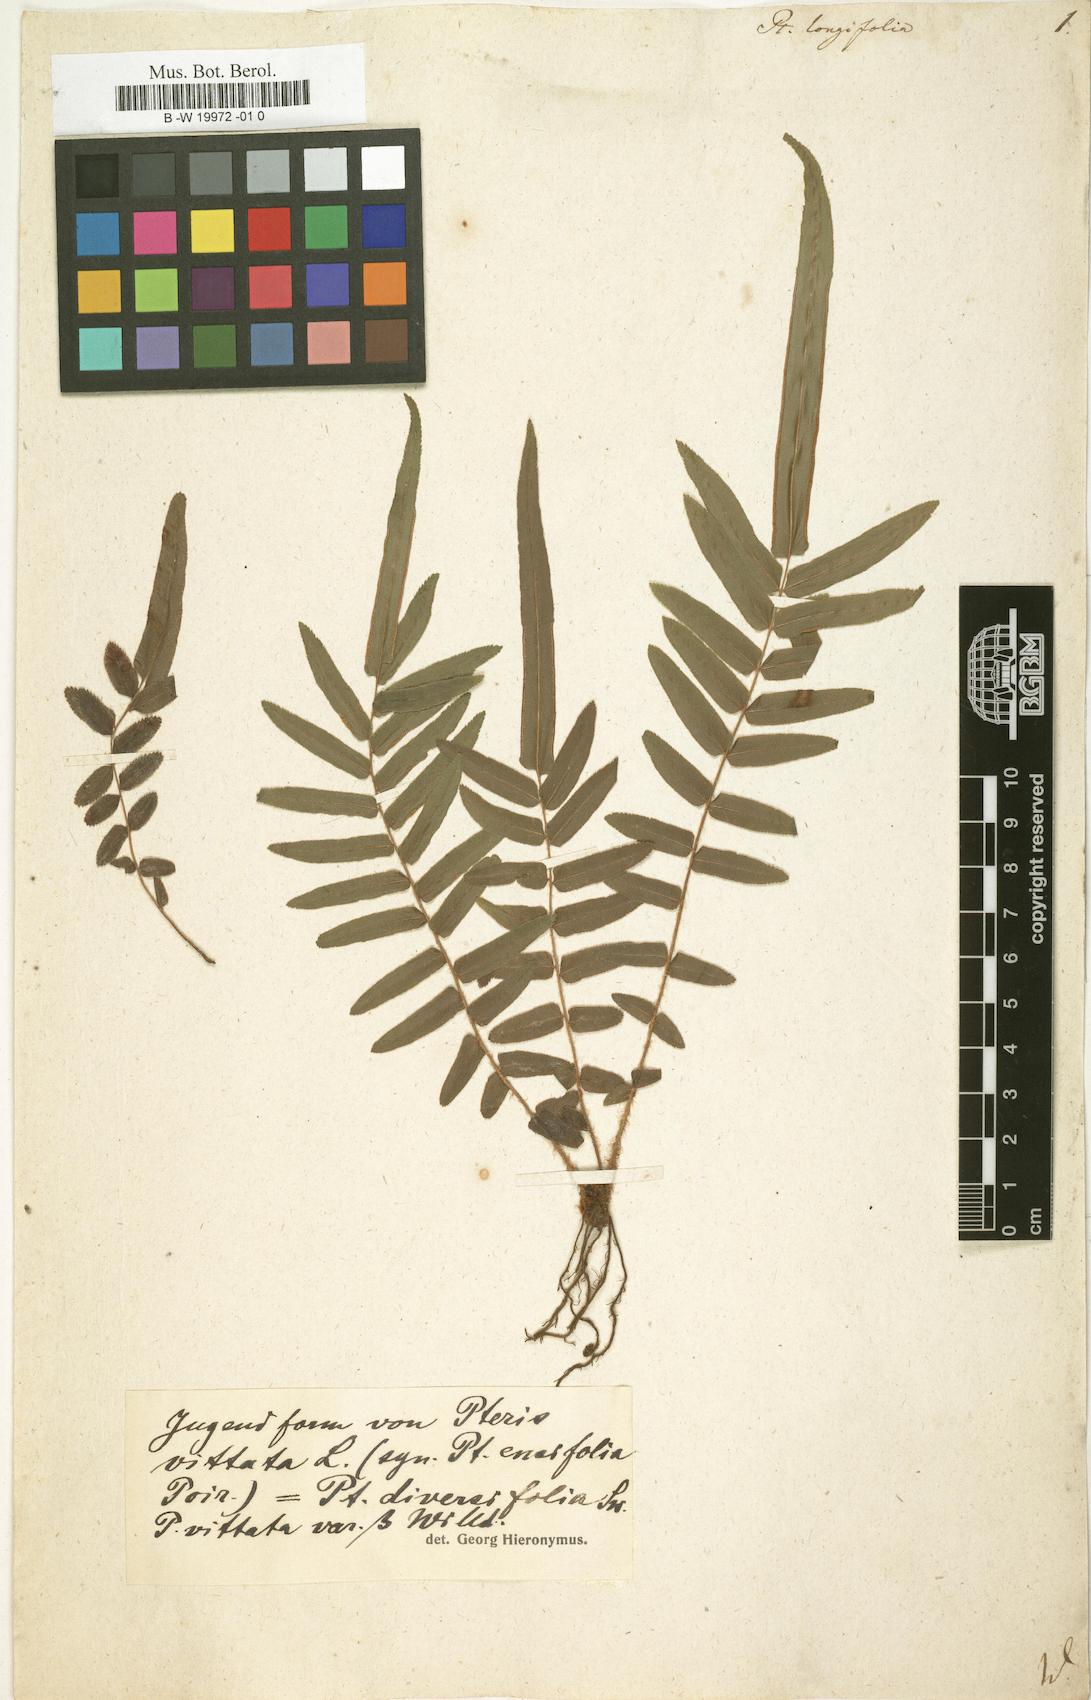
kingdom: Plantae
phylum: Tracheophyta
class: Polypodiopsida
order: Polypodiales
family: Pteridaceae
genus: Pteris
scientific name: Pteris longifolia
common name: Longleaf brake
